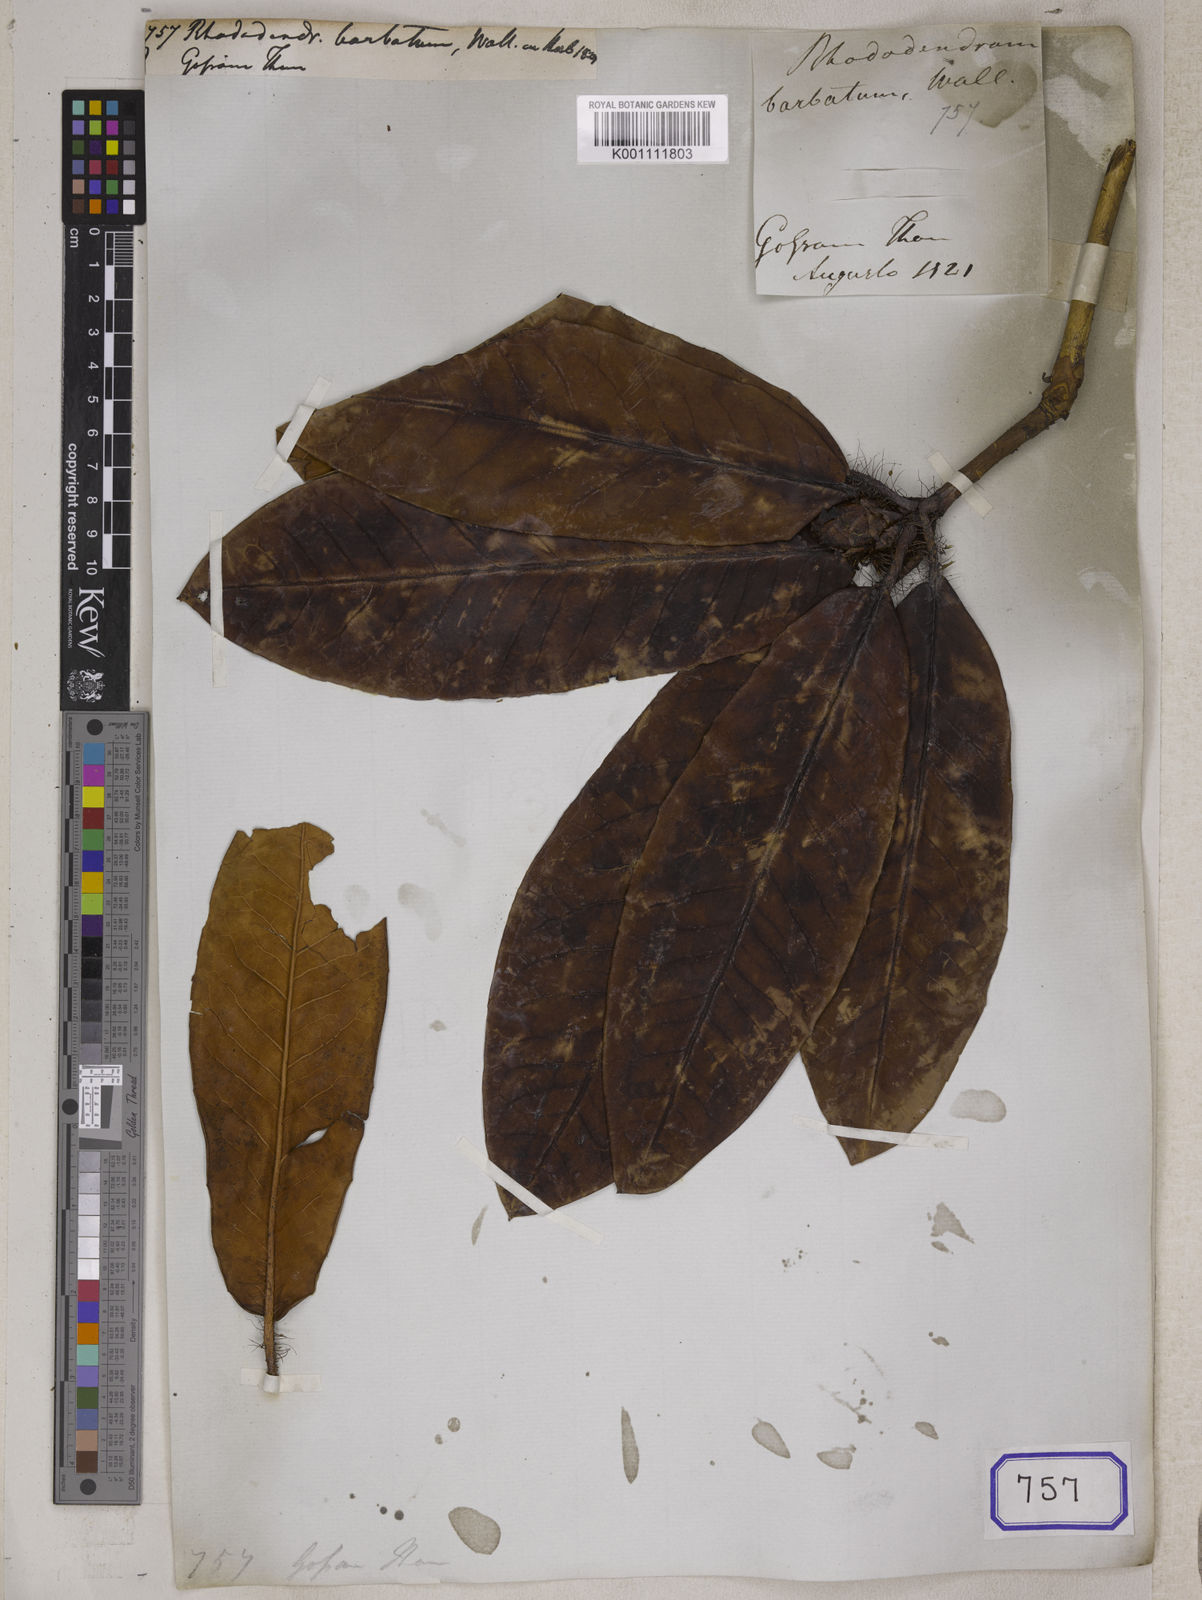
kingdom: Plantae
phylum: Tracheophyta
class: Magnoliopsida
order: Ericales
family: Ericaceae
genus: Rhododendron
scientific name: Rhododendron
